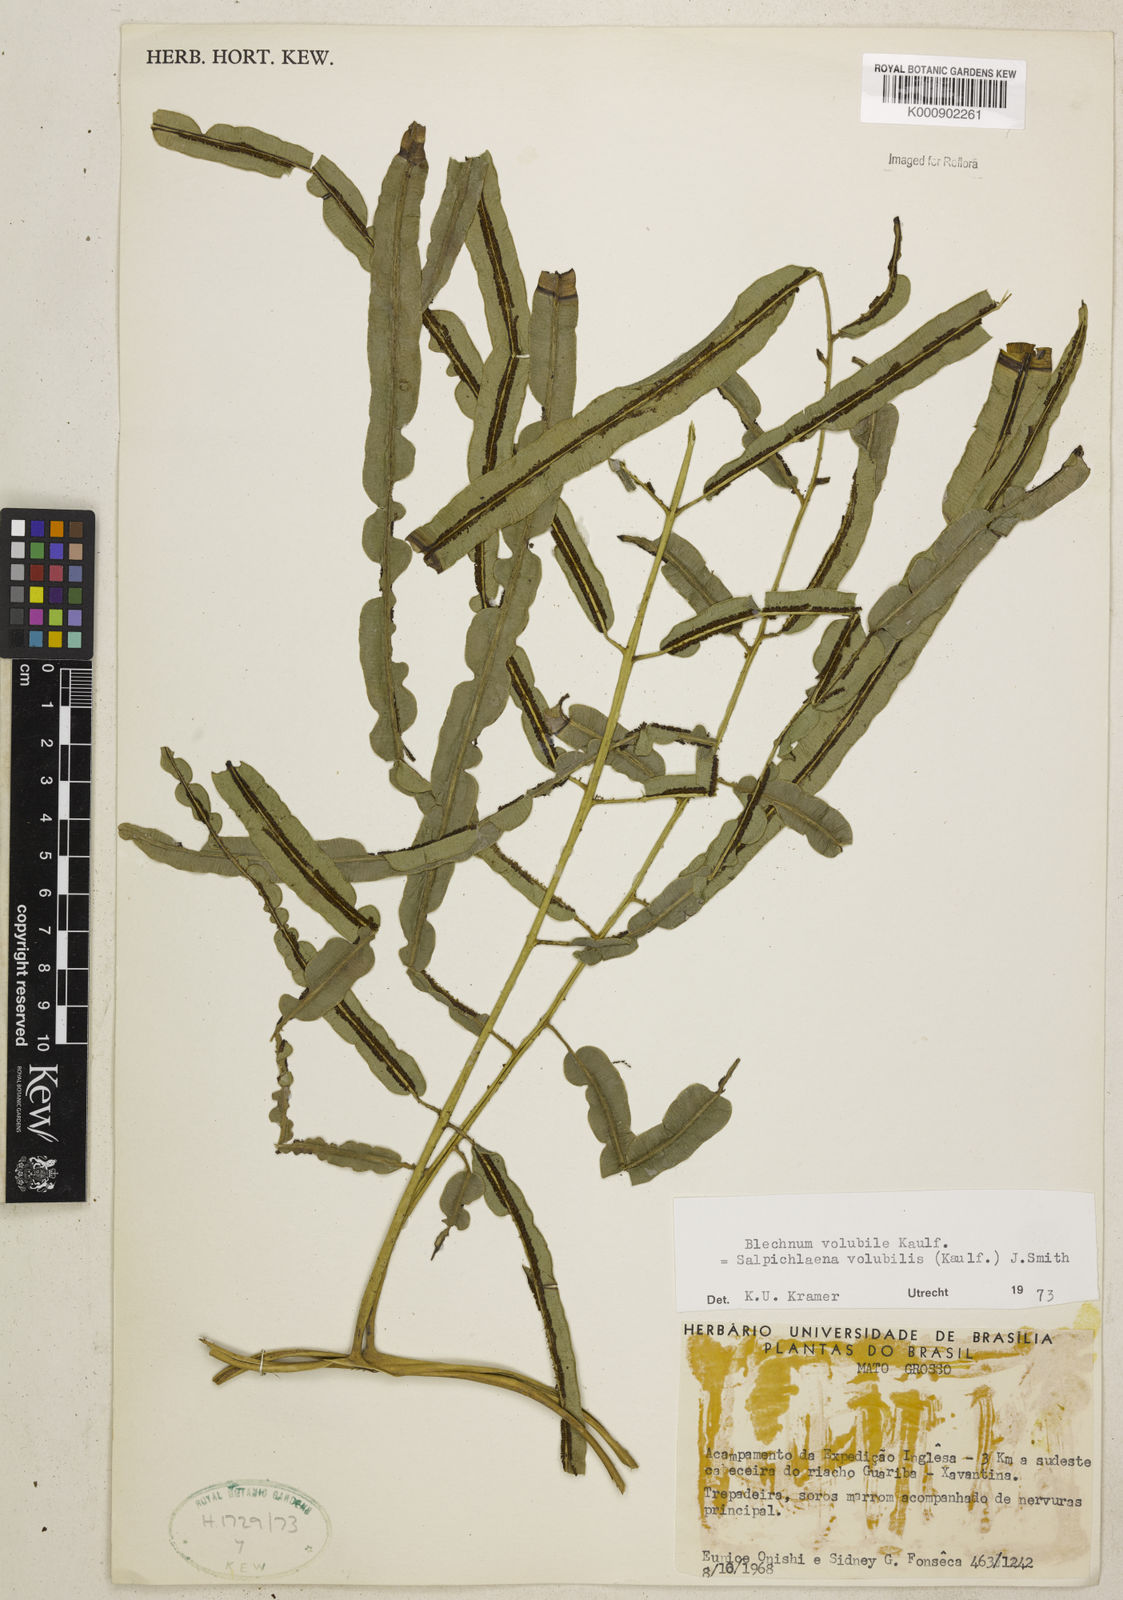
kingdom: Plantae
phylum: Tracheophyta
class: Polypodiopsida
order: Polypodiales
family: Blechnaceae
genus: Salpichlaena
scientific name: Salpichlaena volubilis
